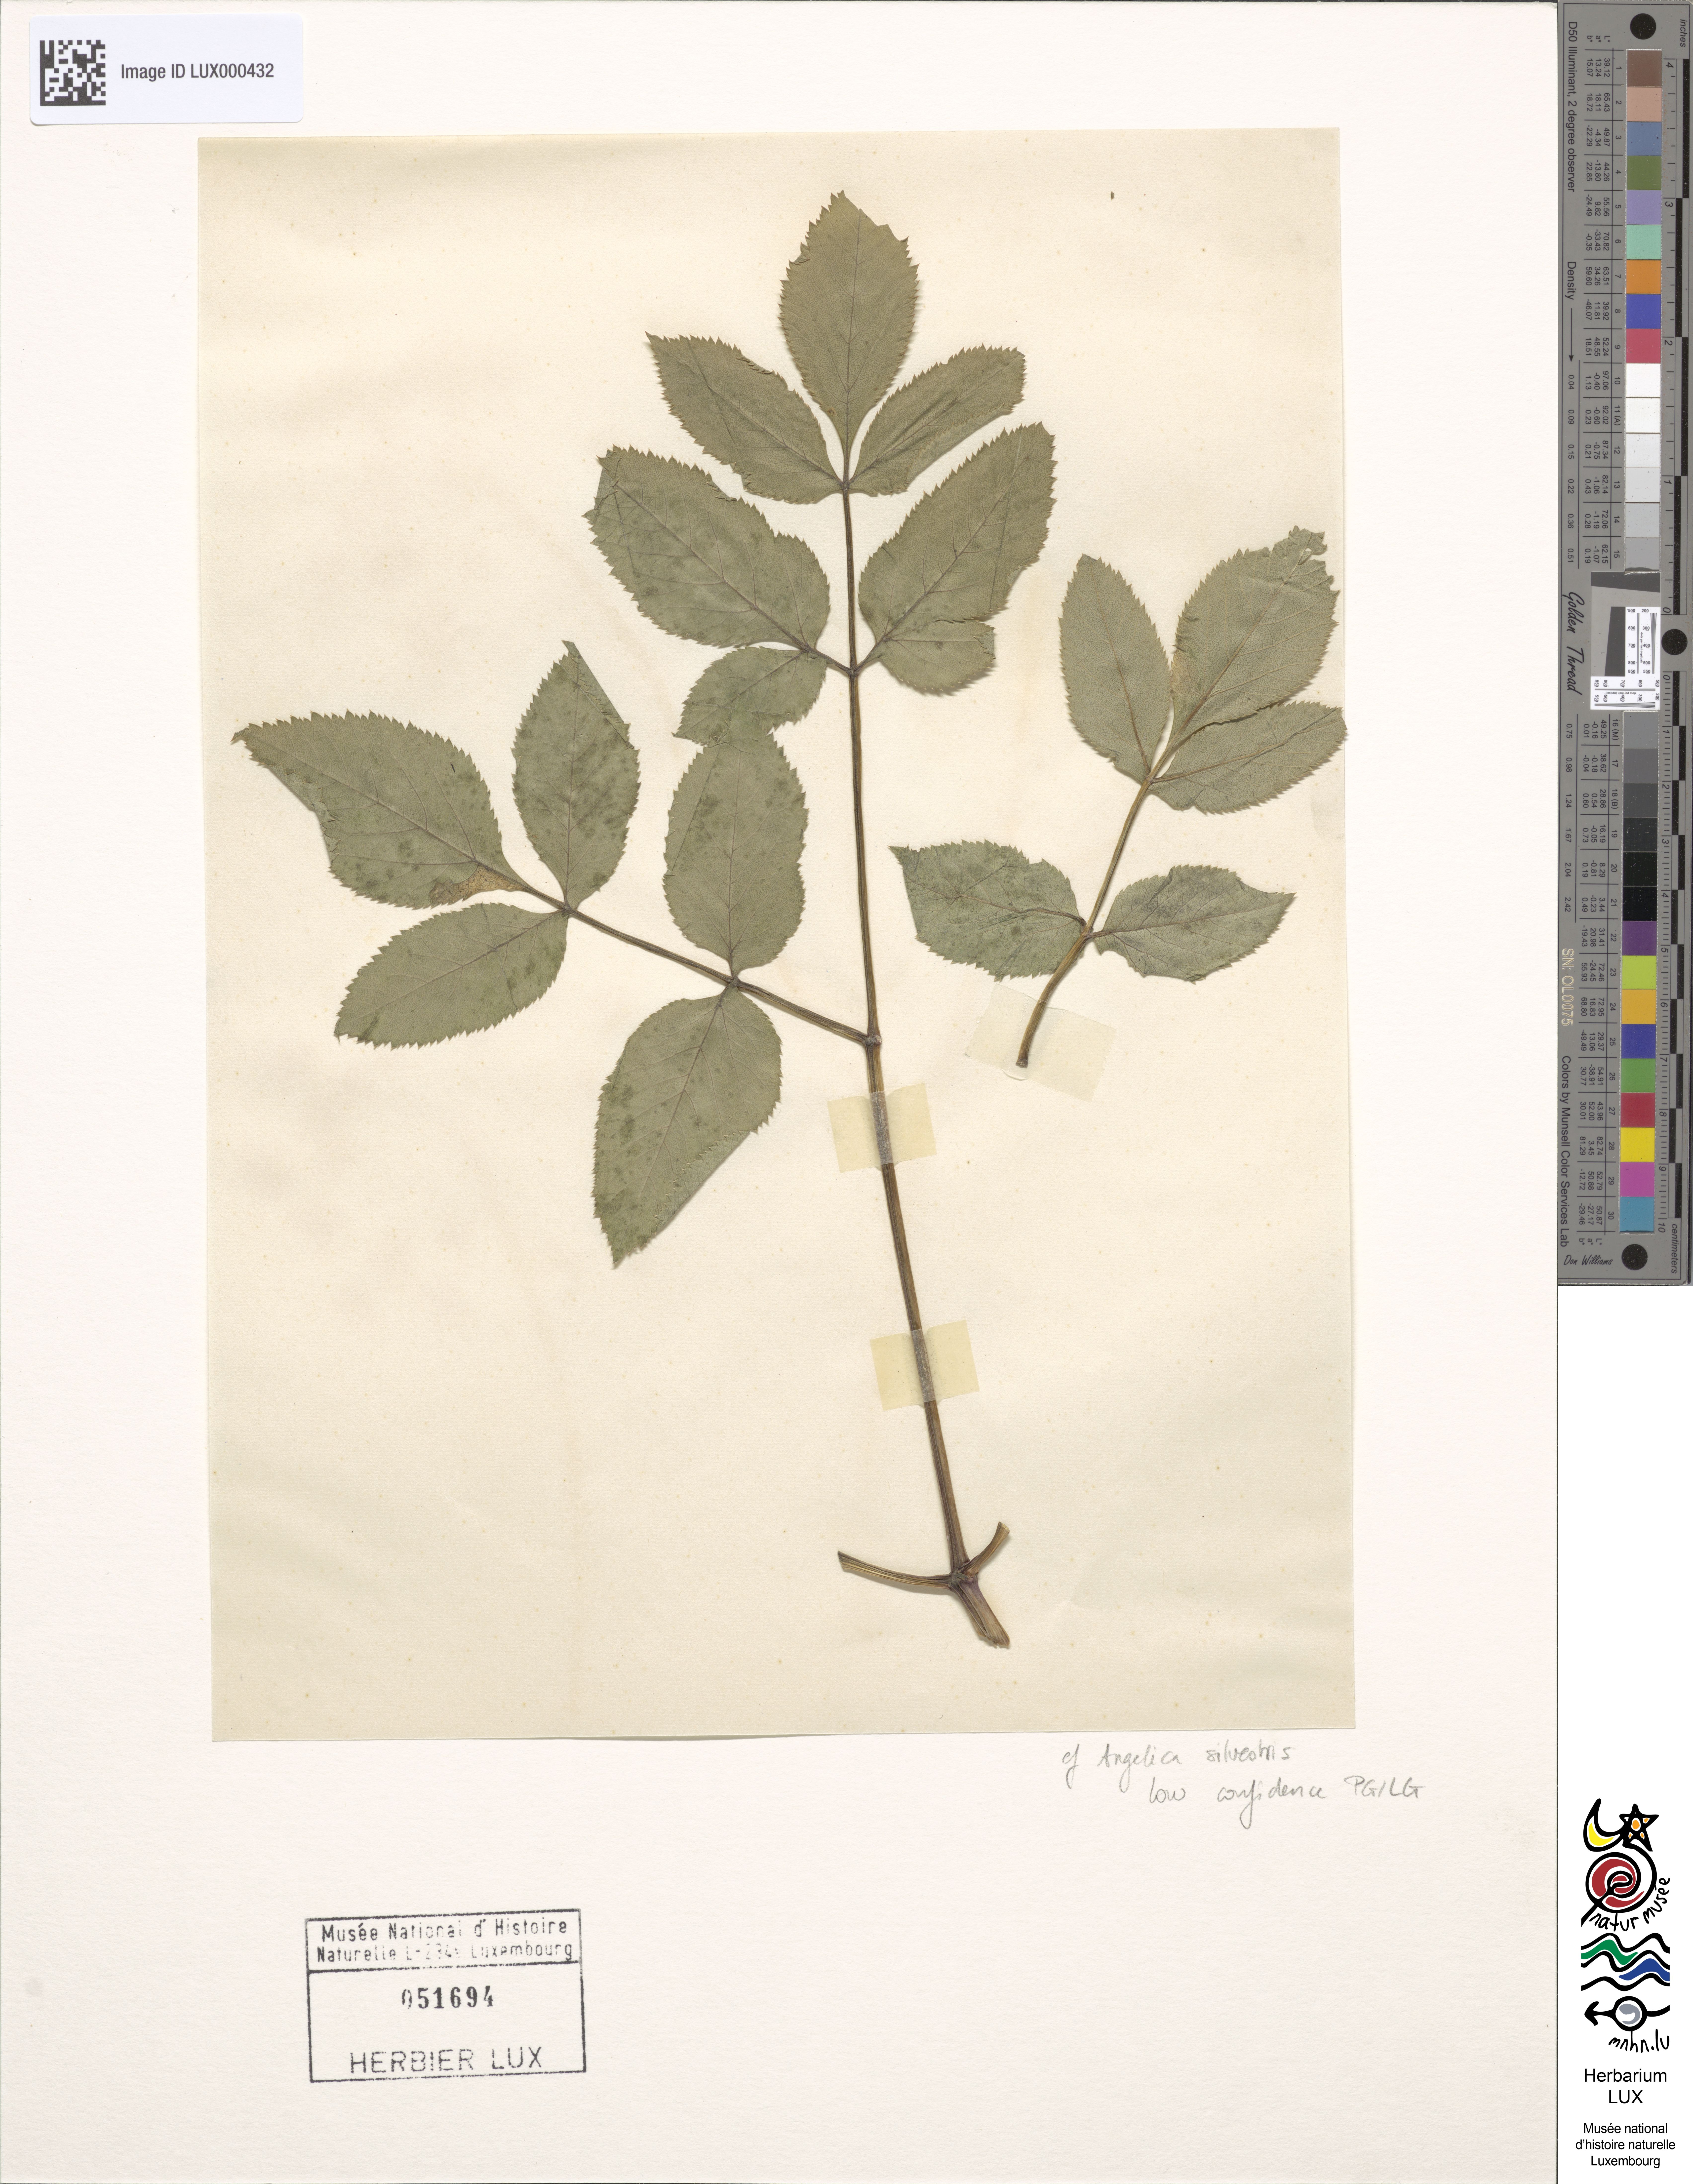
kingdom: Plantae
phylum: Tracheophyta
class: Magnoliopsida
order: Apiales
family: Apiaceae
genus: Angelica
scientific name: Angelica sylvestris
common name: Wild angelica
